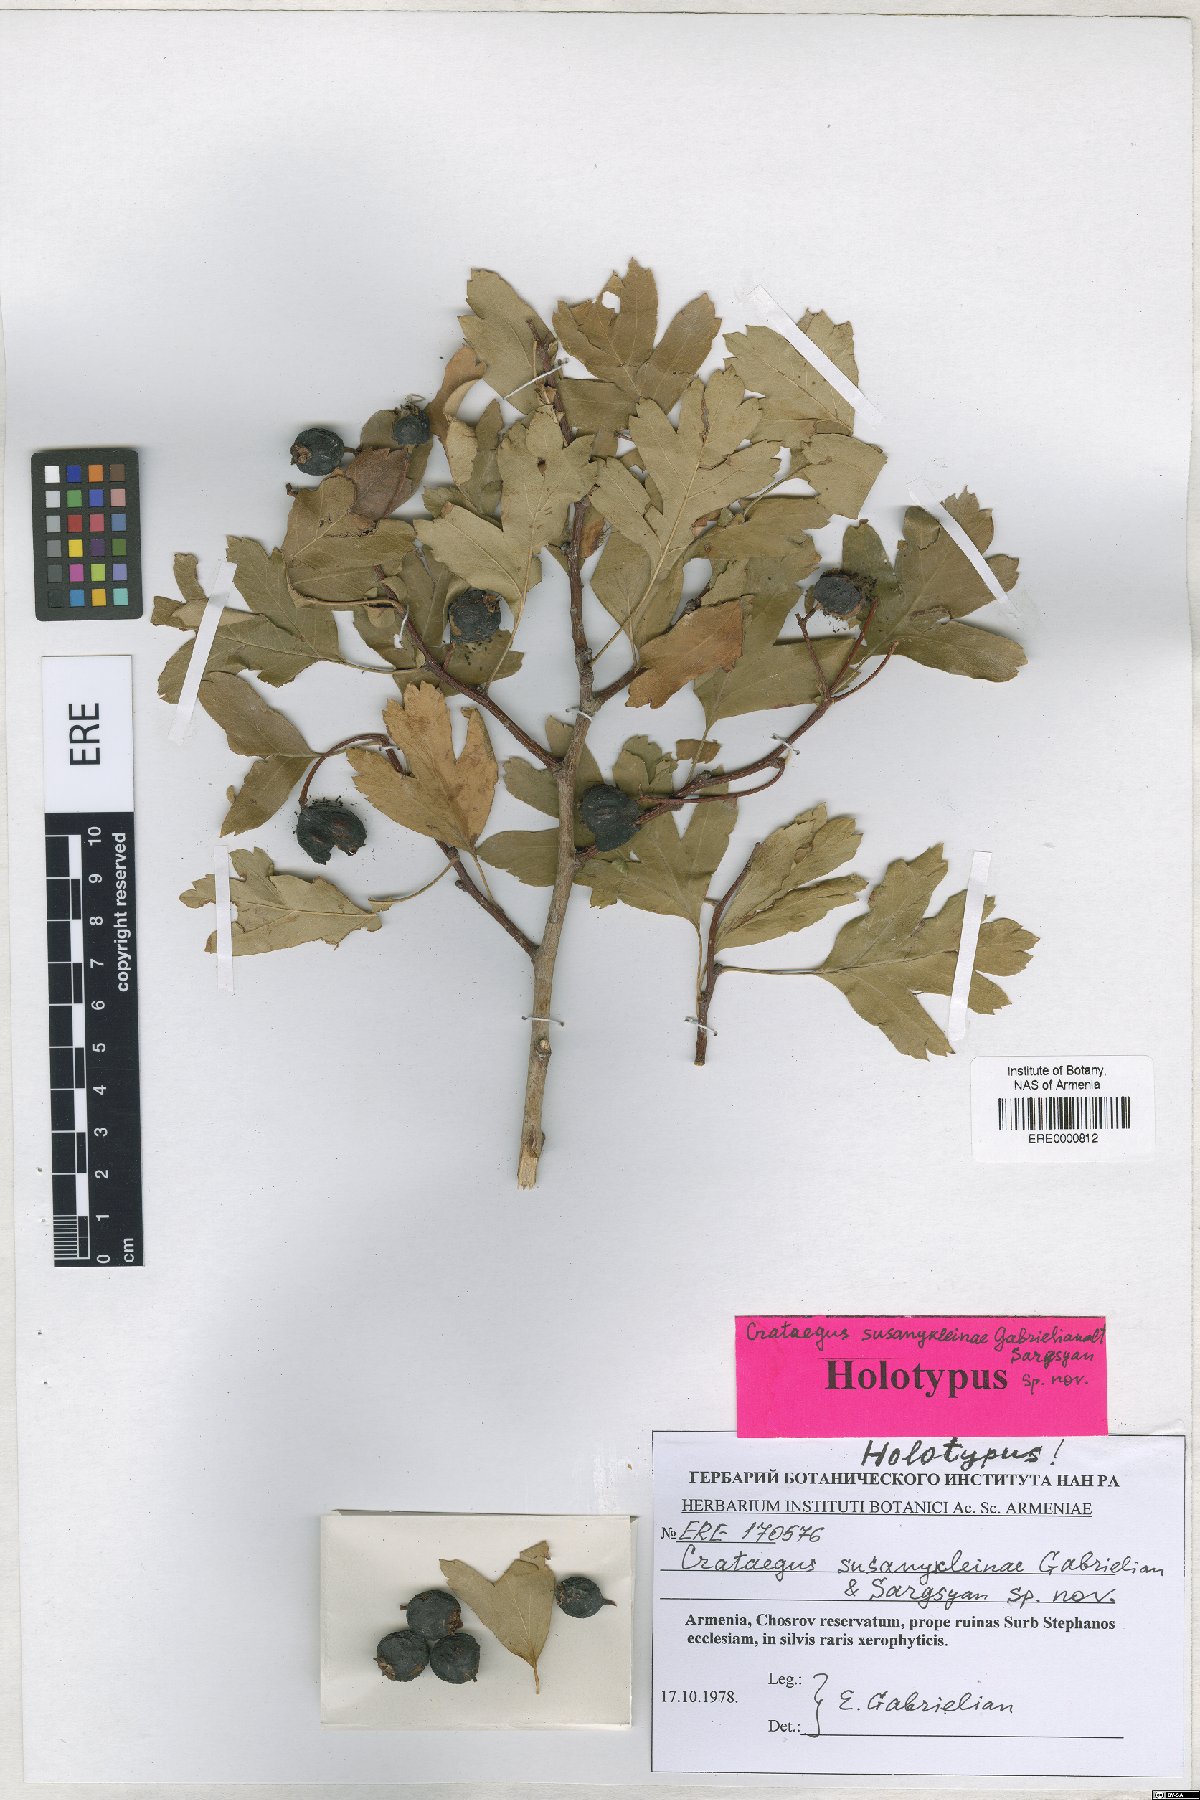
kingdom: Plantae
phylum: Tracheophyta
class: Magnoliopsida
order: Rosales
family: Rosaceae
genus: Crataegus
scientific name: Crataegus
